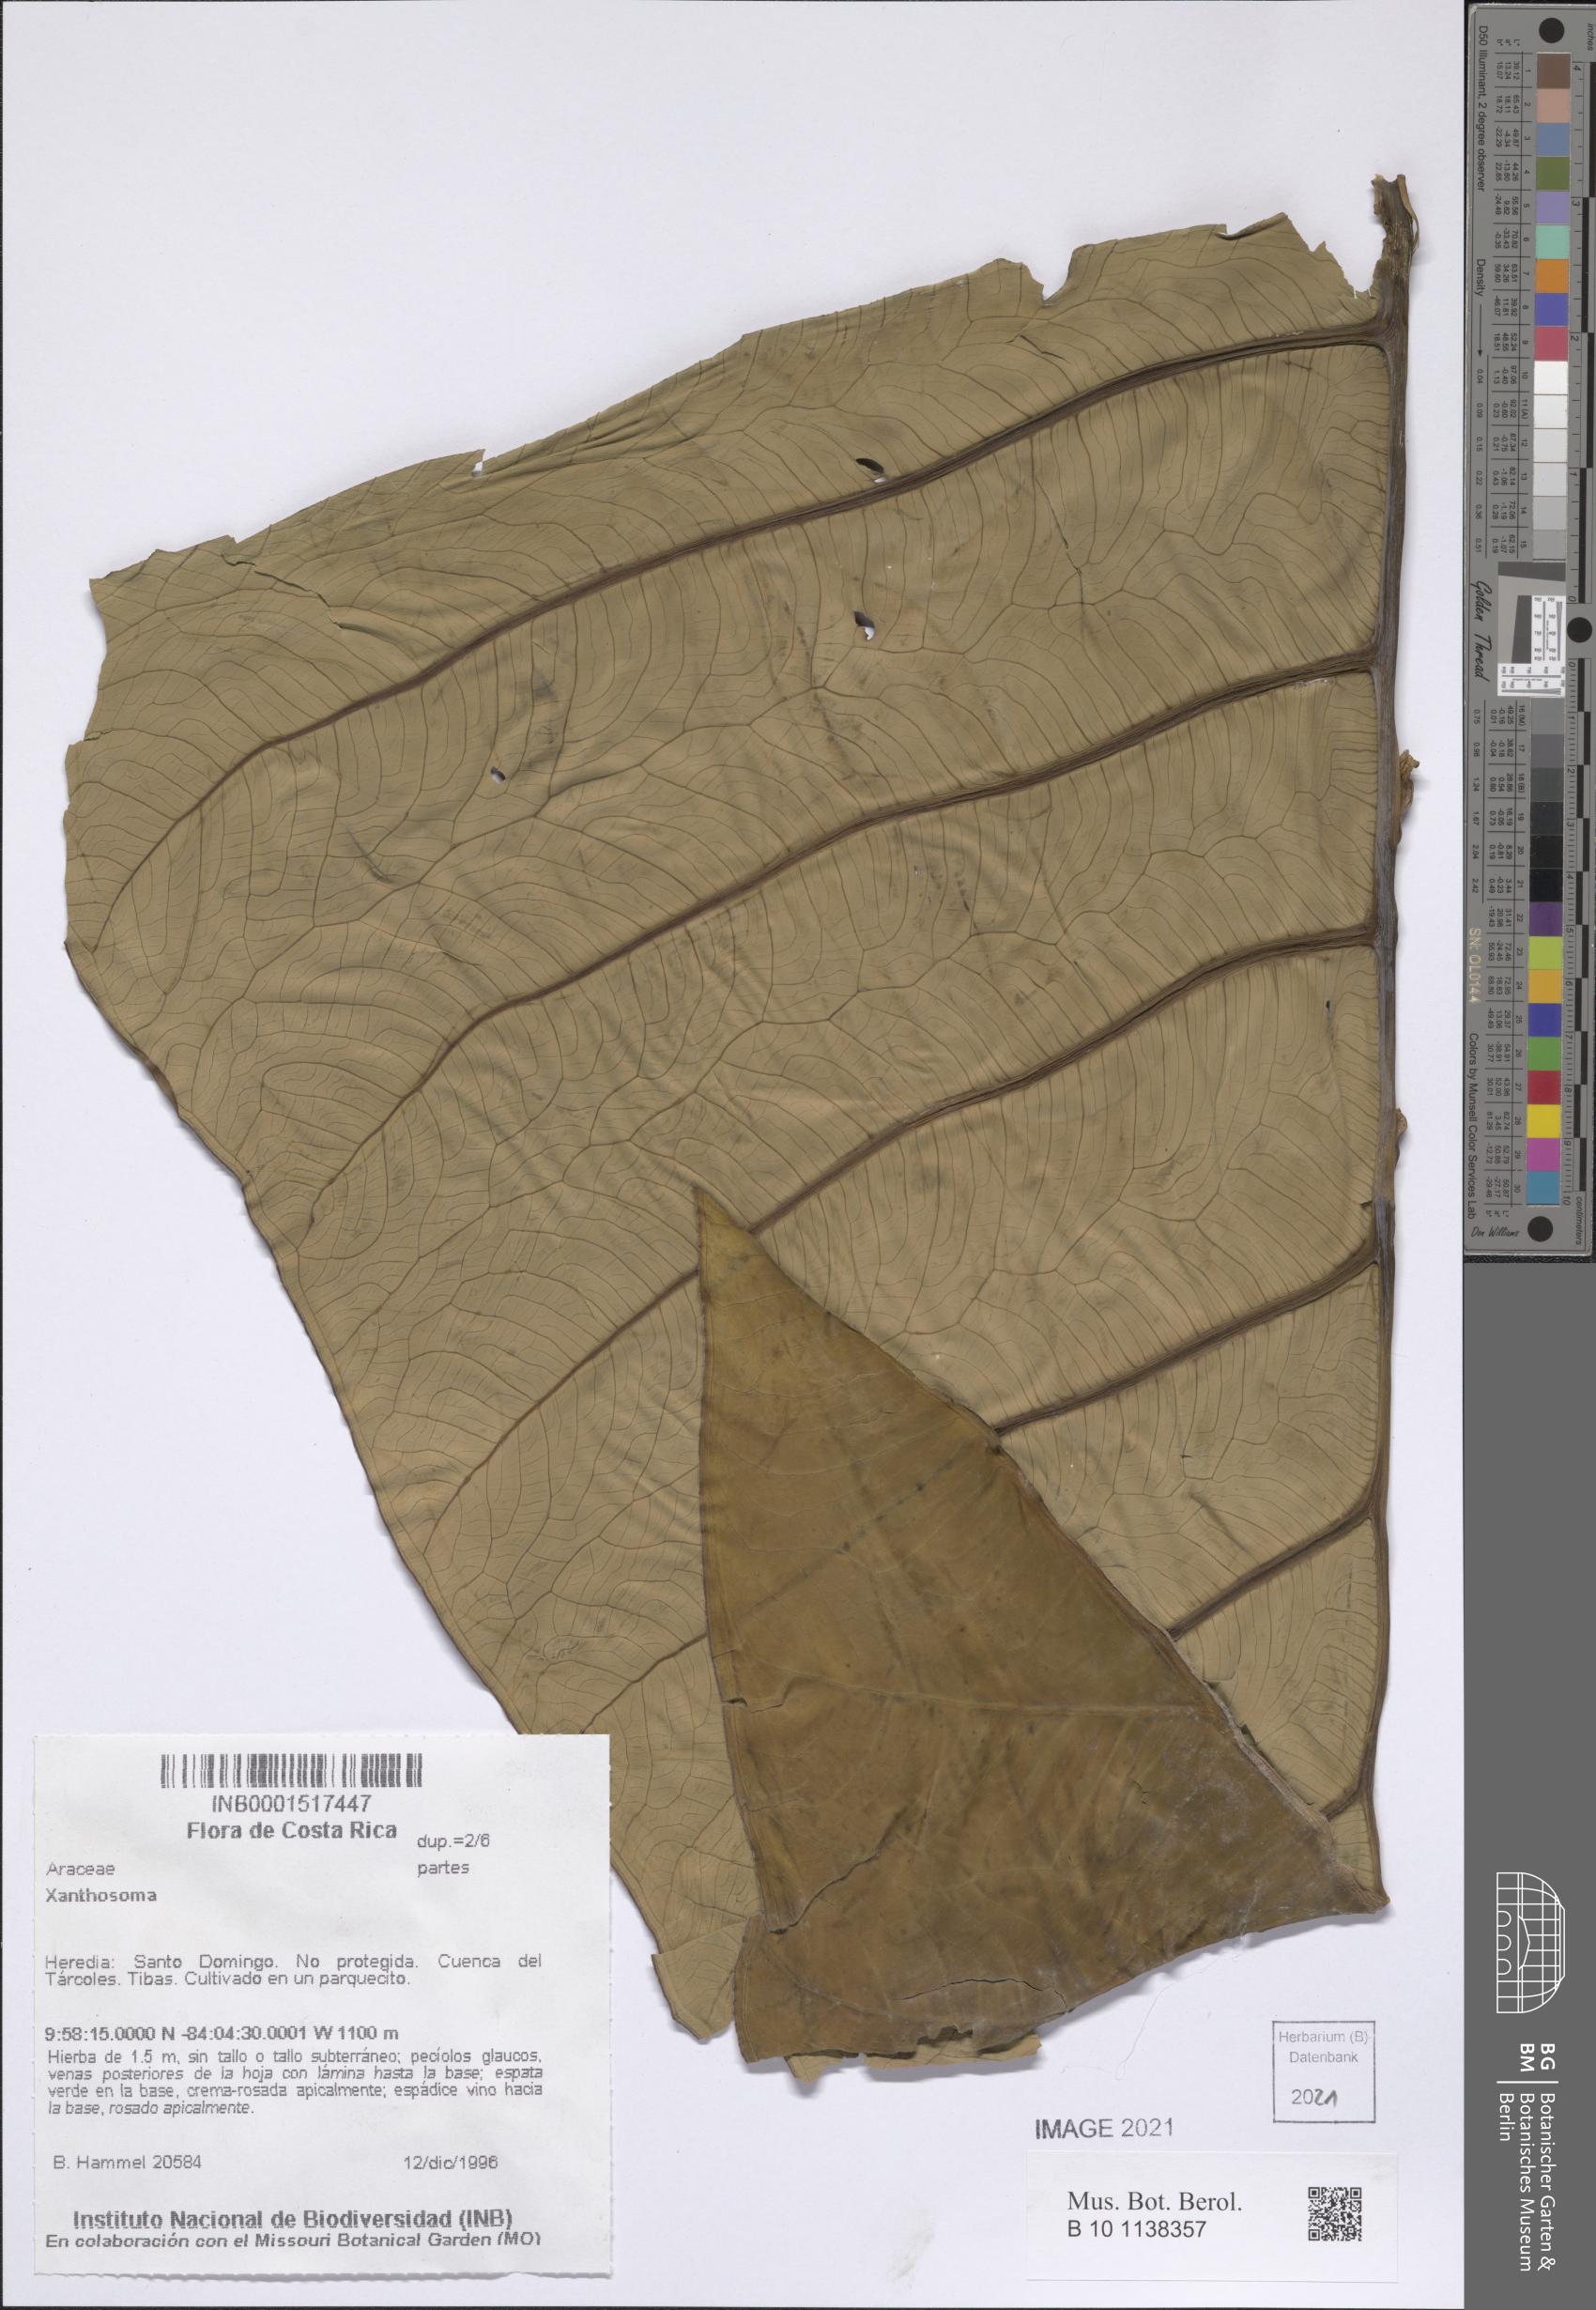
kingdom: Plantae
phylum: Tracheophyta
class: Liliopsida
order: Alismatales
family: Araceae
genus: Xanthosoma
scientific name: Xanthosoma sagittifolium
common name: Arrowleaf elephant's ear
